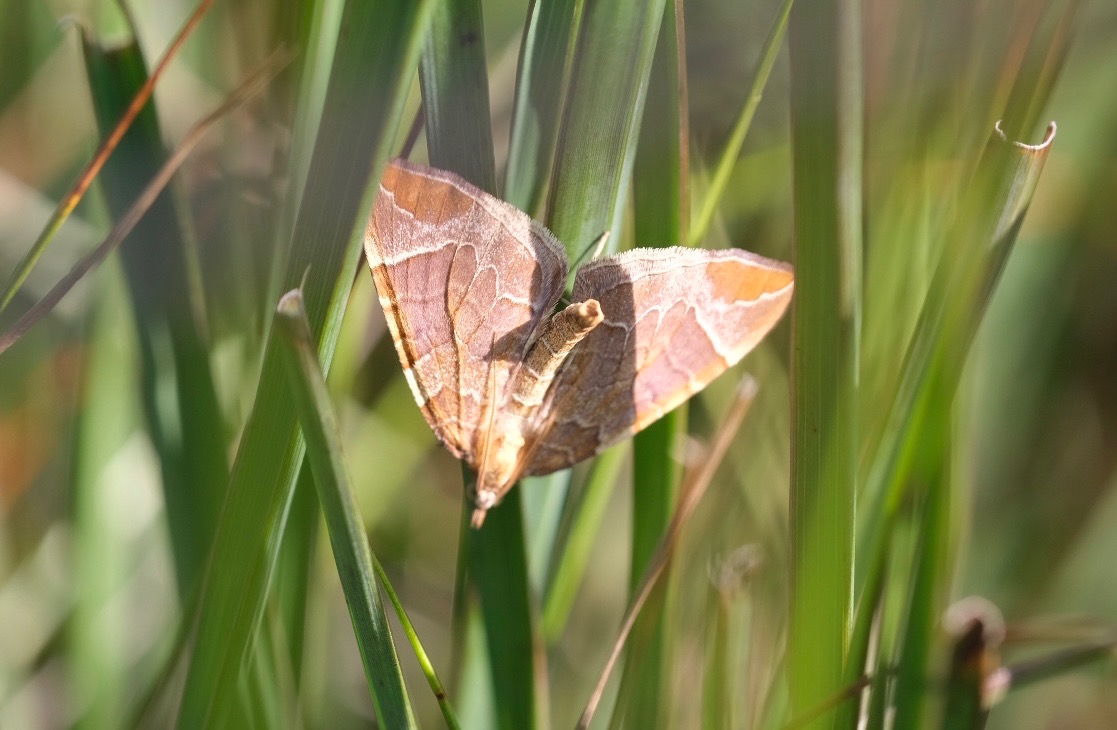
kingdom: Animalia
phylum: Arthropoda
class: Insecta
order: Lepidoptera
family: Geometridae
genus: Eulithis
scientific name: Eulithis testata
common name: Pile-havemåler
